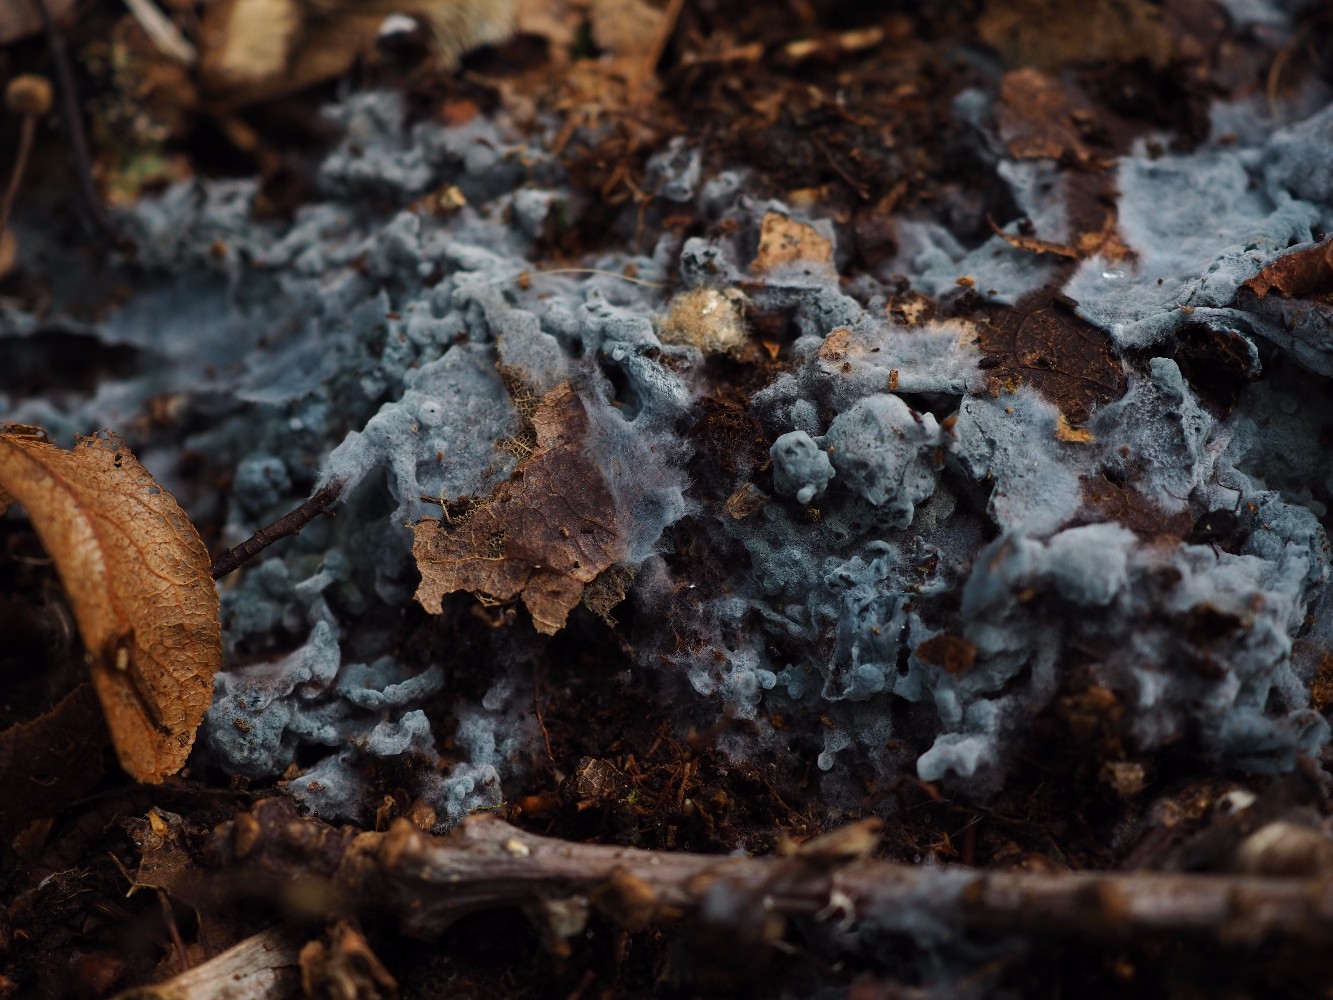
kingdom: Fungi
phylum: Basidiomycota
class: Agaricomycetes
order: Atheliales
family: Atheliaceae
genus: Byssocorticium
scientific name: Byssocorticium atrovirens
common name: blå førnehinde
